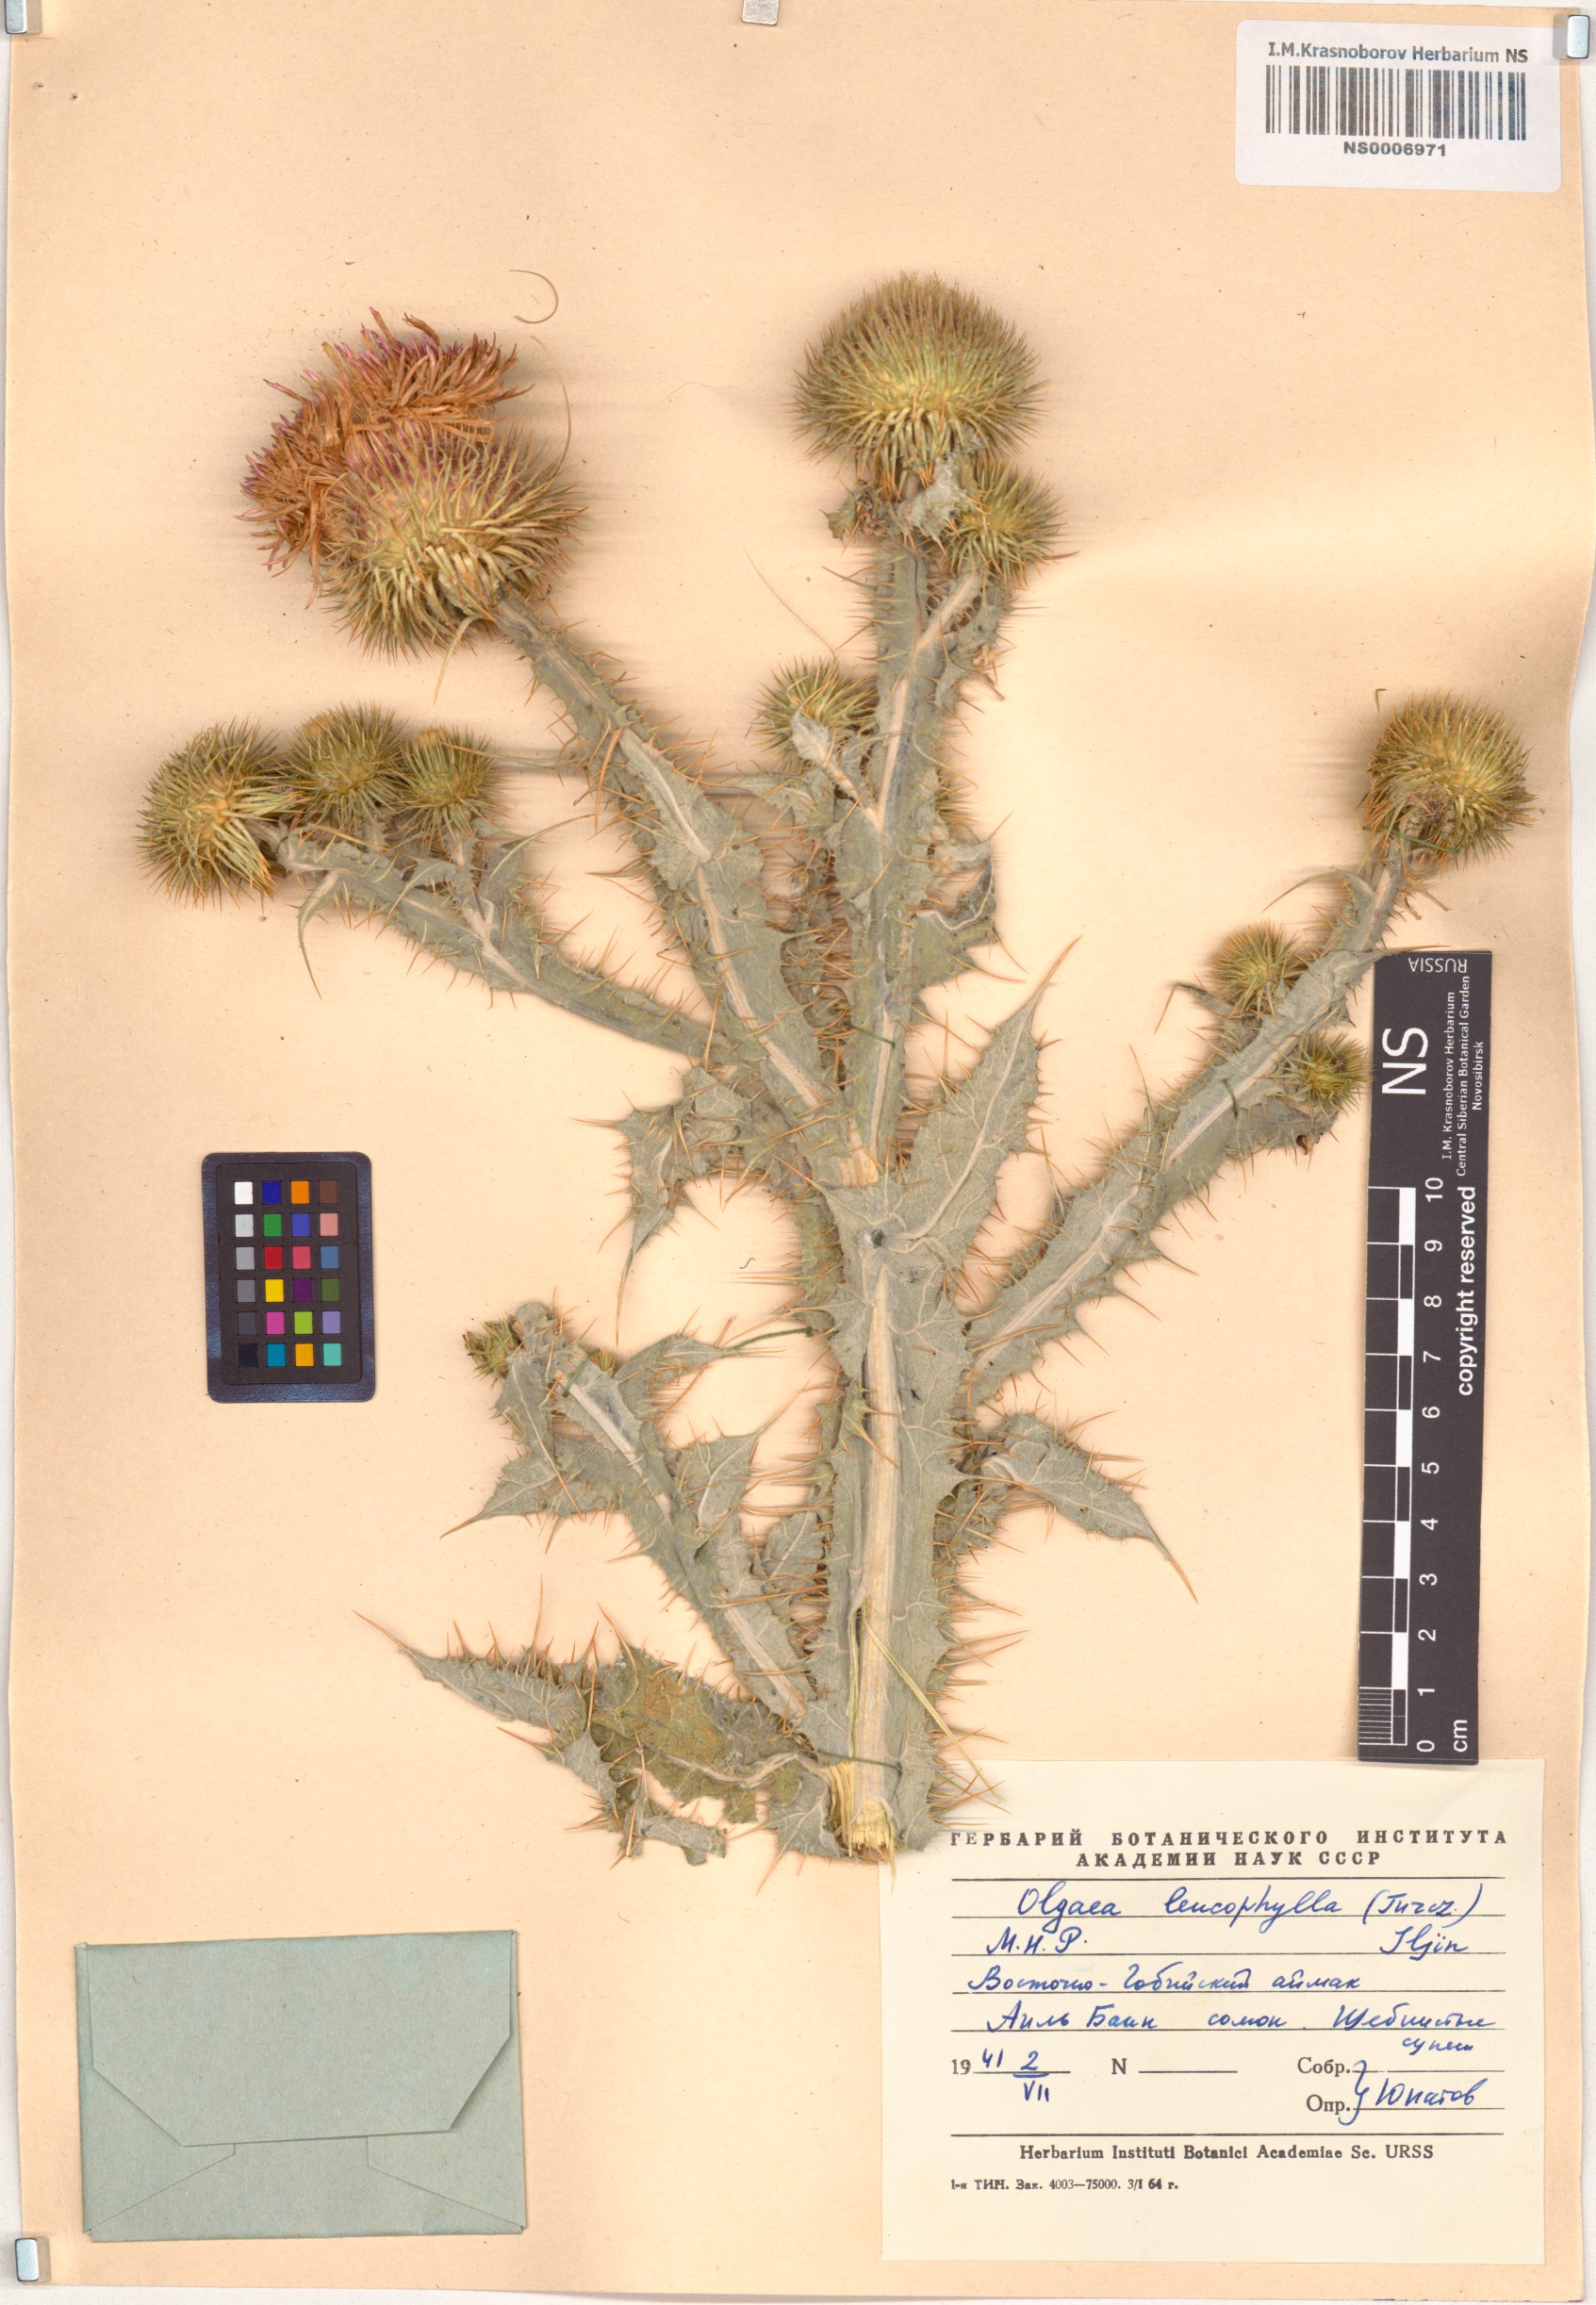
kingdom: Plantae
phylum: Tracheophyta
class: Magnoliopsida
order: Asterales
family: Asteraceae
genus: Olgaea
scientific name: Olgaea leucophylla
